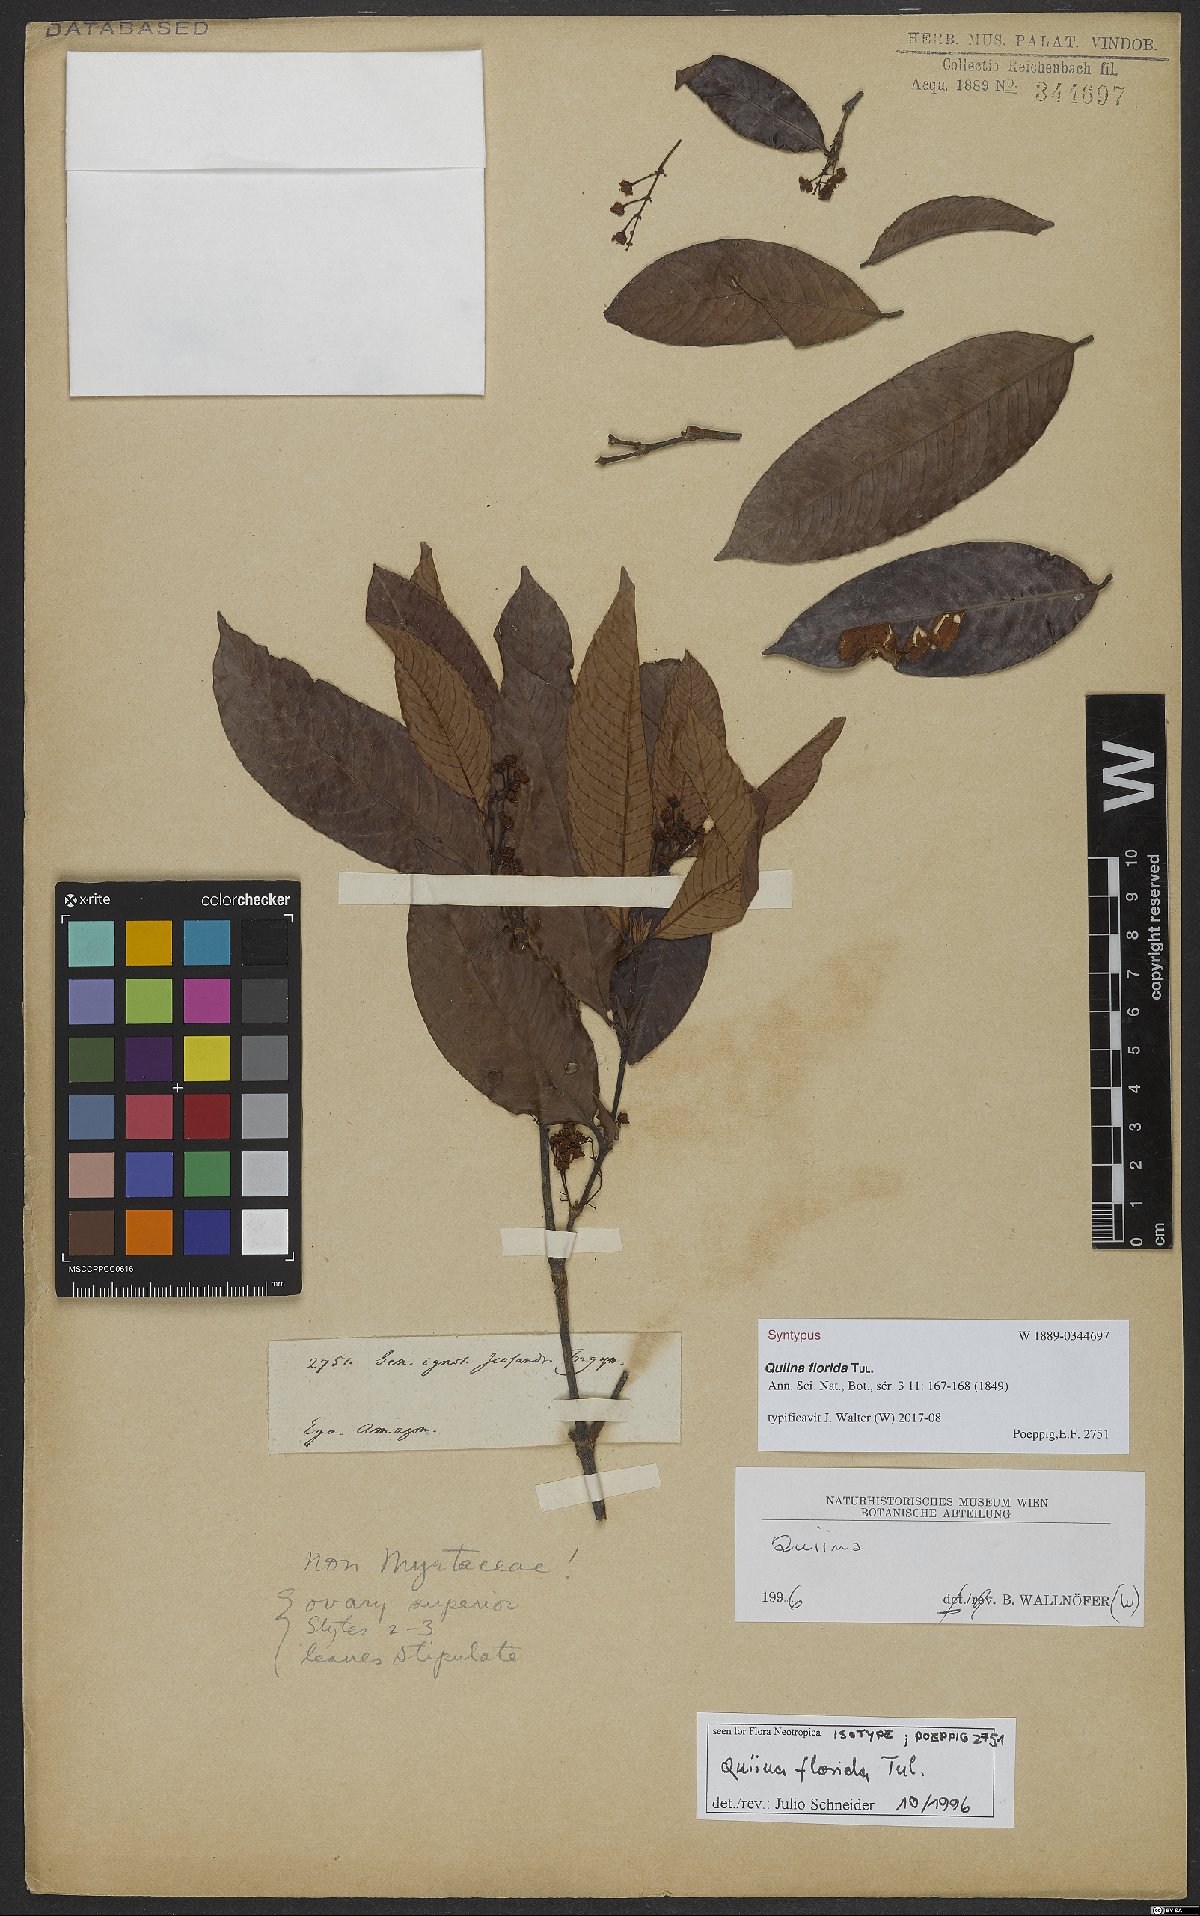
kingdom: Plantae
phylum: Tracheophyta
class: Magnoliopsida
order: Malpighiales
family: Quiinaceae
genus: Quiina
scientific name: Quiina florida
